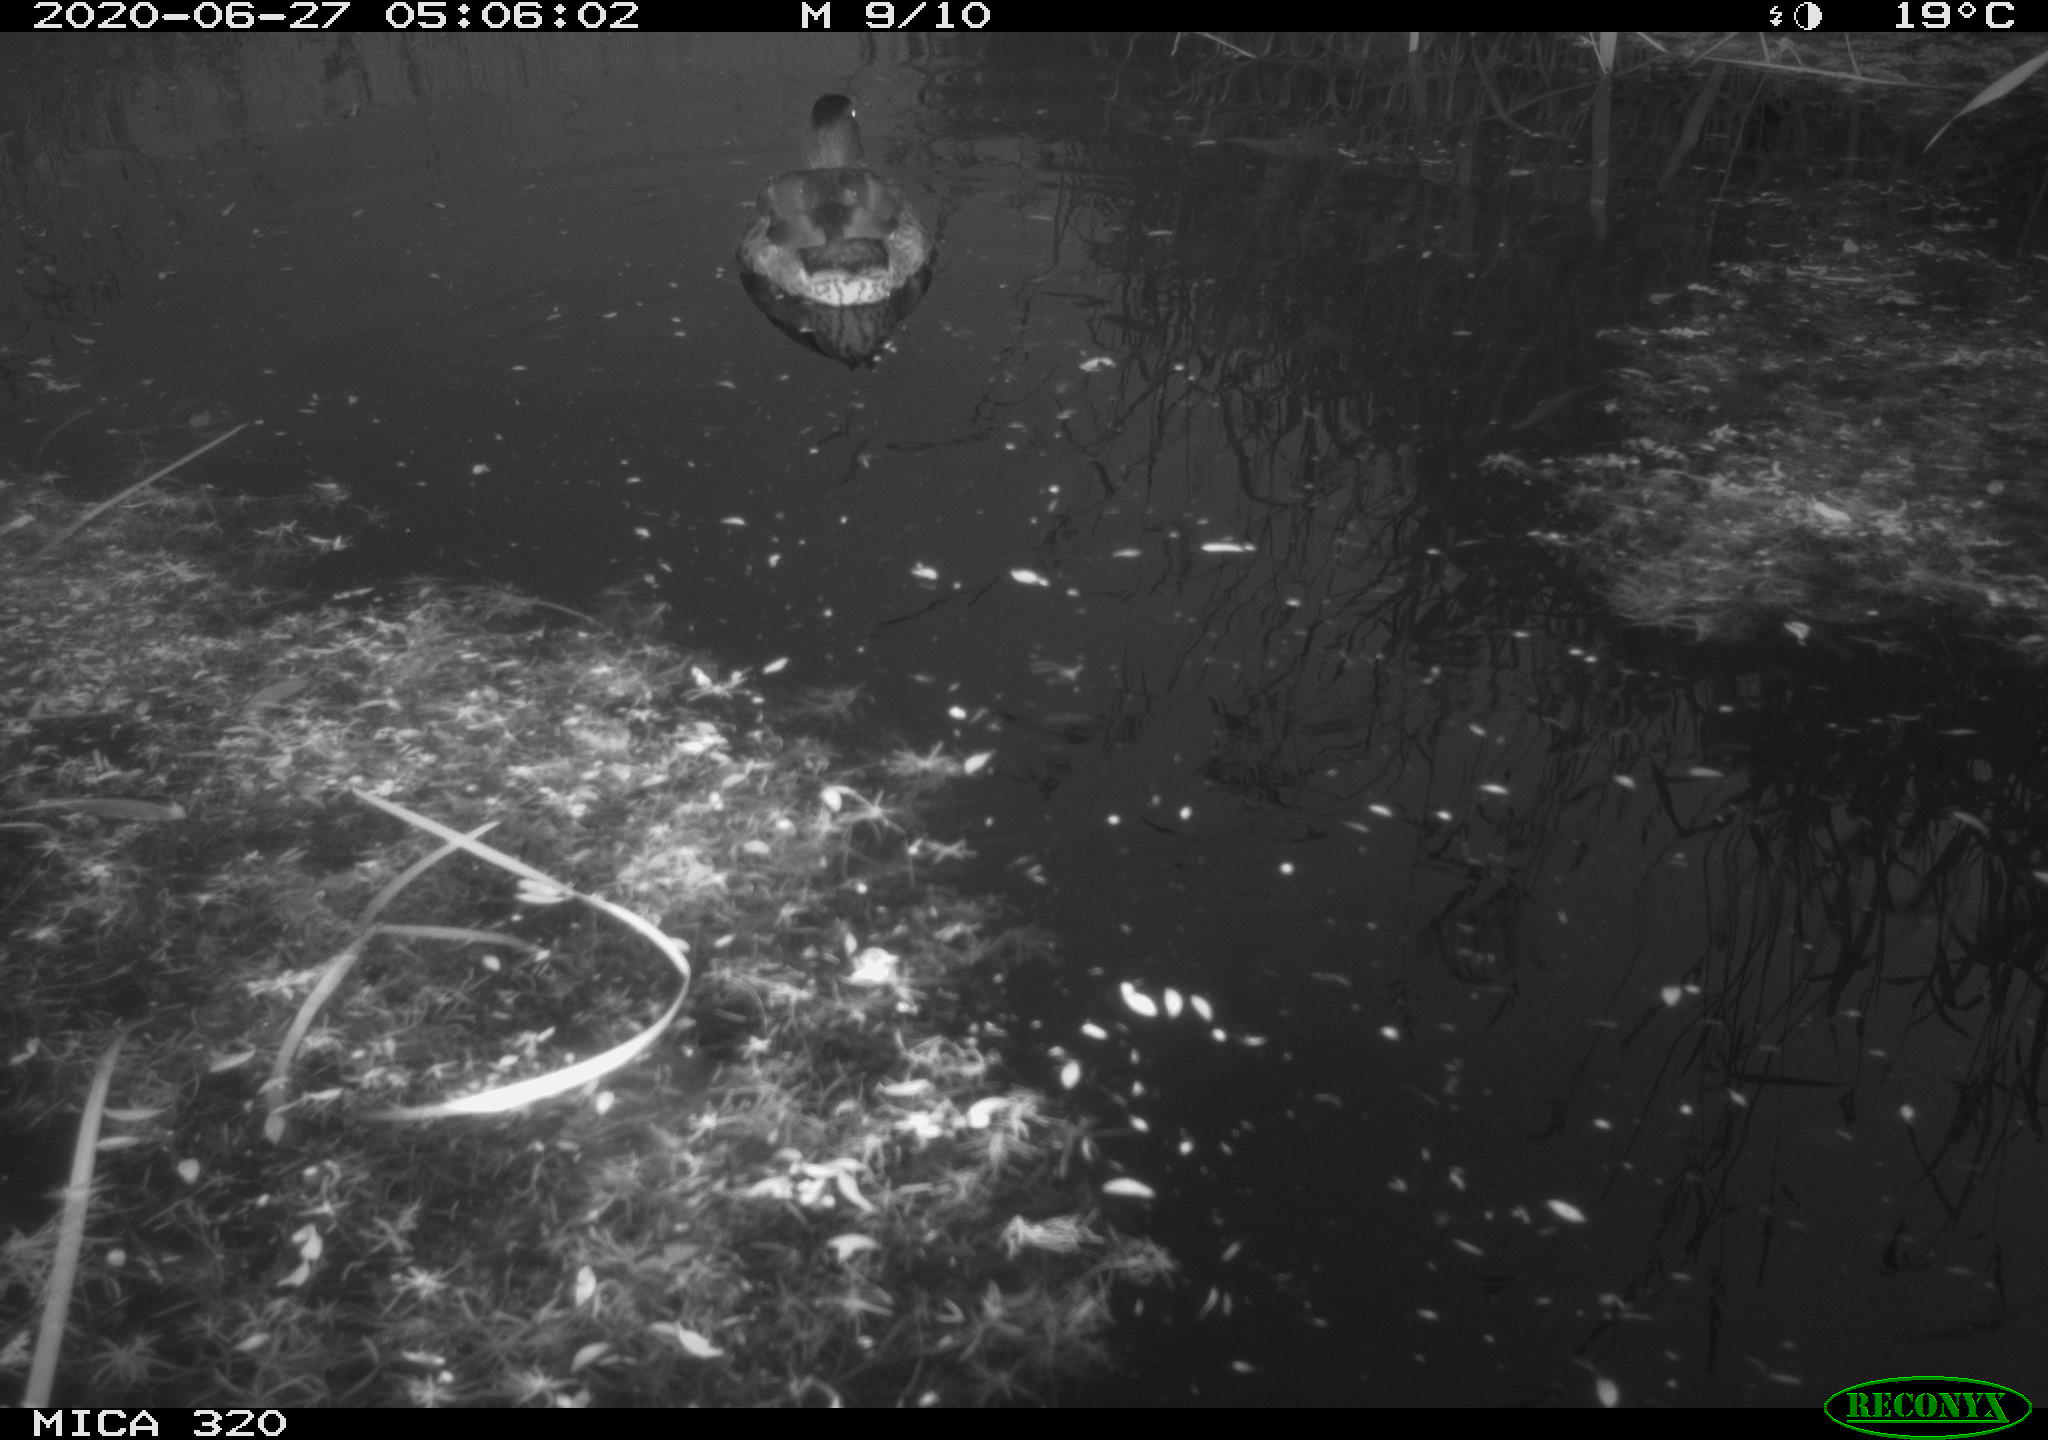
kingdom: Animalia
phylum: Chordata
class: Aves
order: Anseriformes
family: Anatidae
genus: Anas
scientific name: Anas platyrhynchos
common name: Mallard
